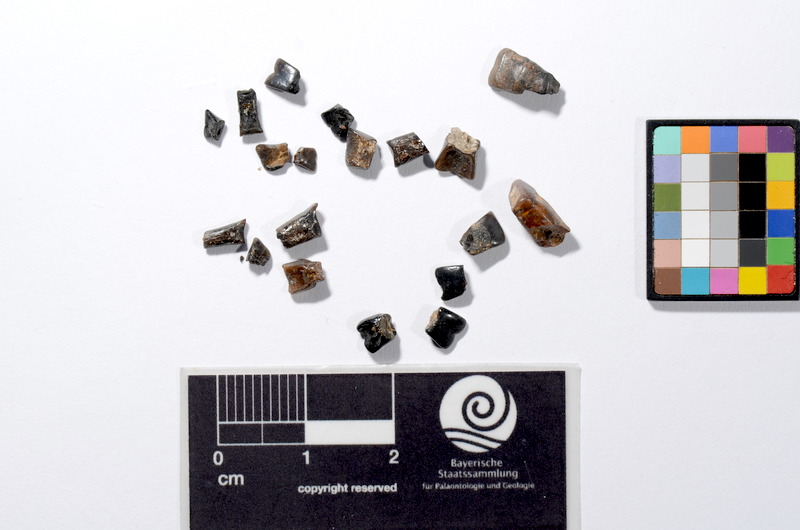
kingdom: Animalia
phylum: Chordata
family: Semionotidae
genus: Sargodon
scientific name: Sargodon tomicus
